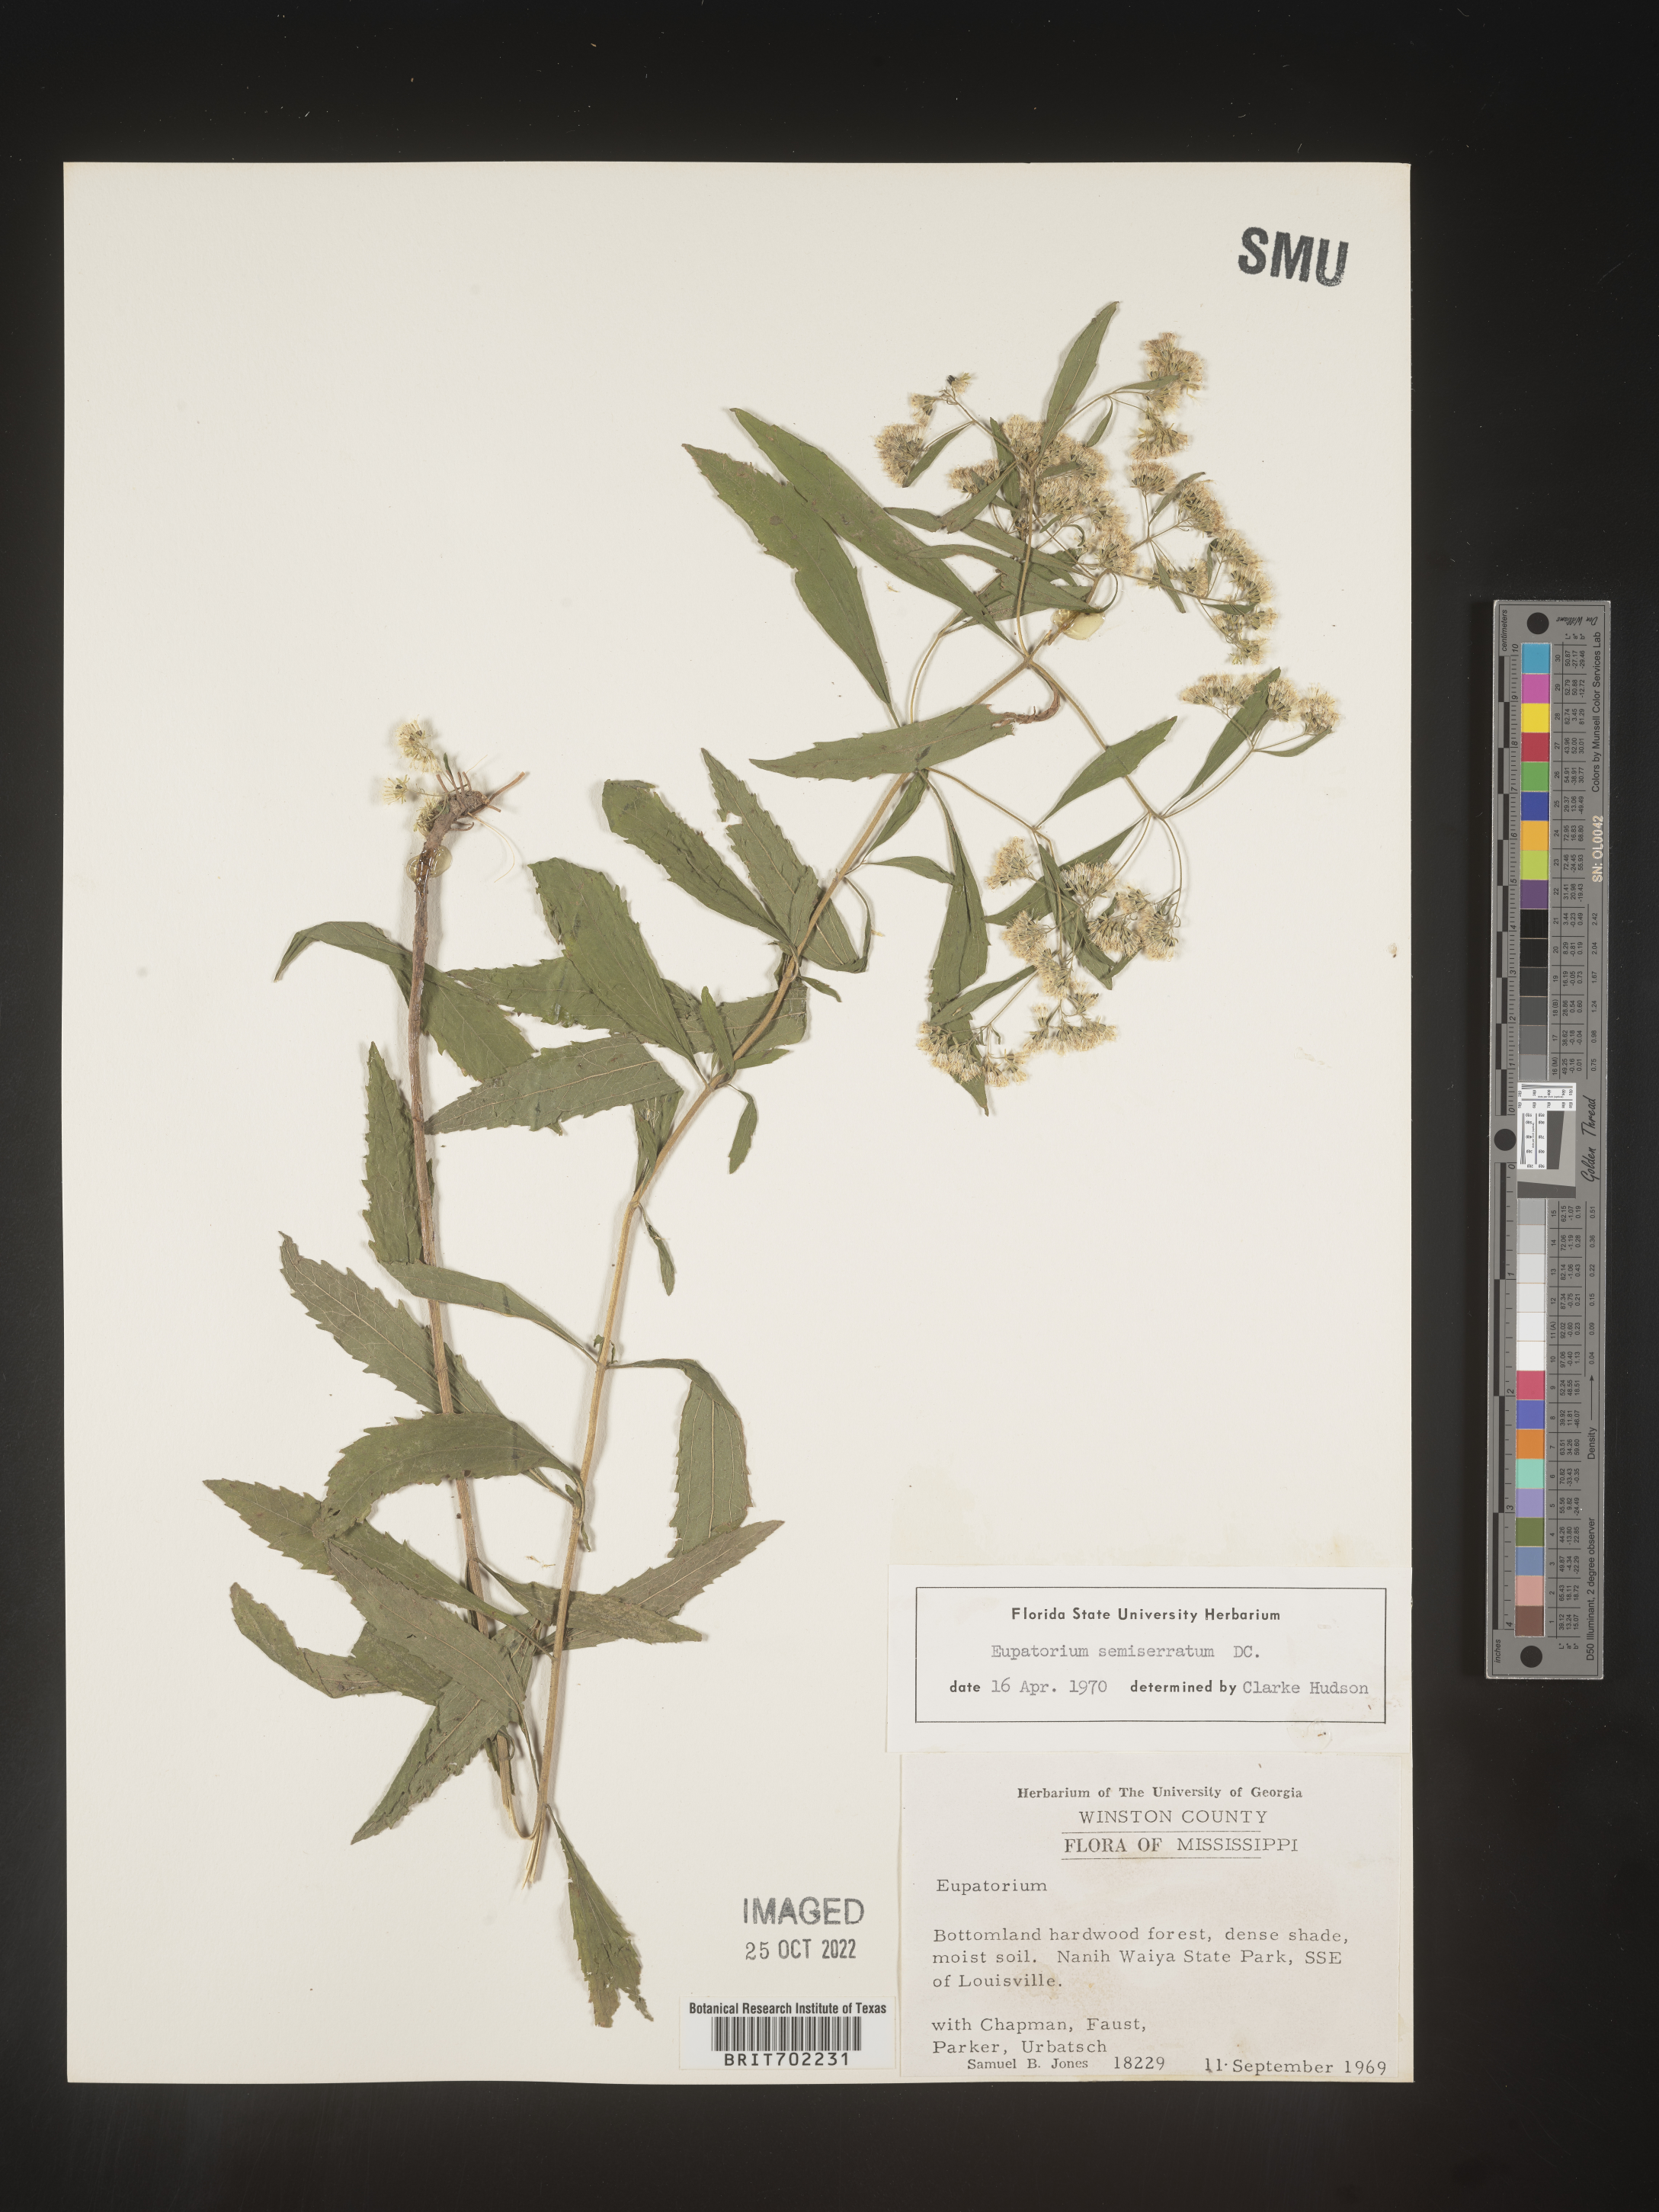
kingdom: Plantae
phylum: Tracheophyta
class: Magnoliopsida
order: Asterales
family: Asteraceae
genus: Eupatorium
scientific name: Eupatorium semiserratum
